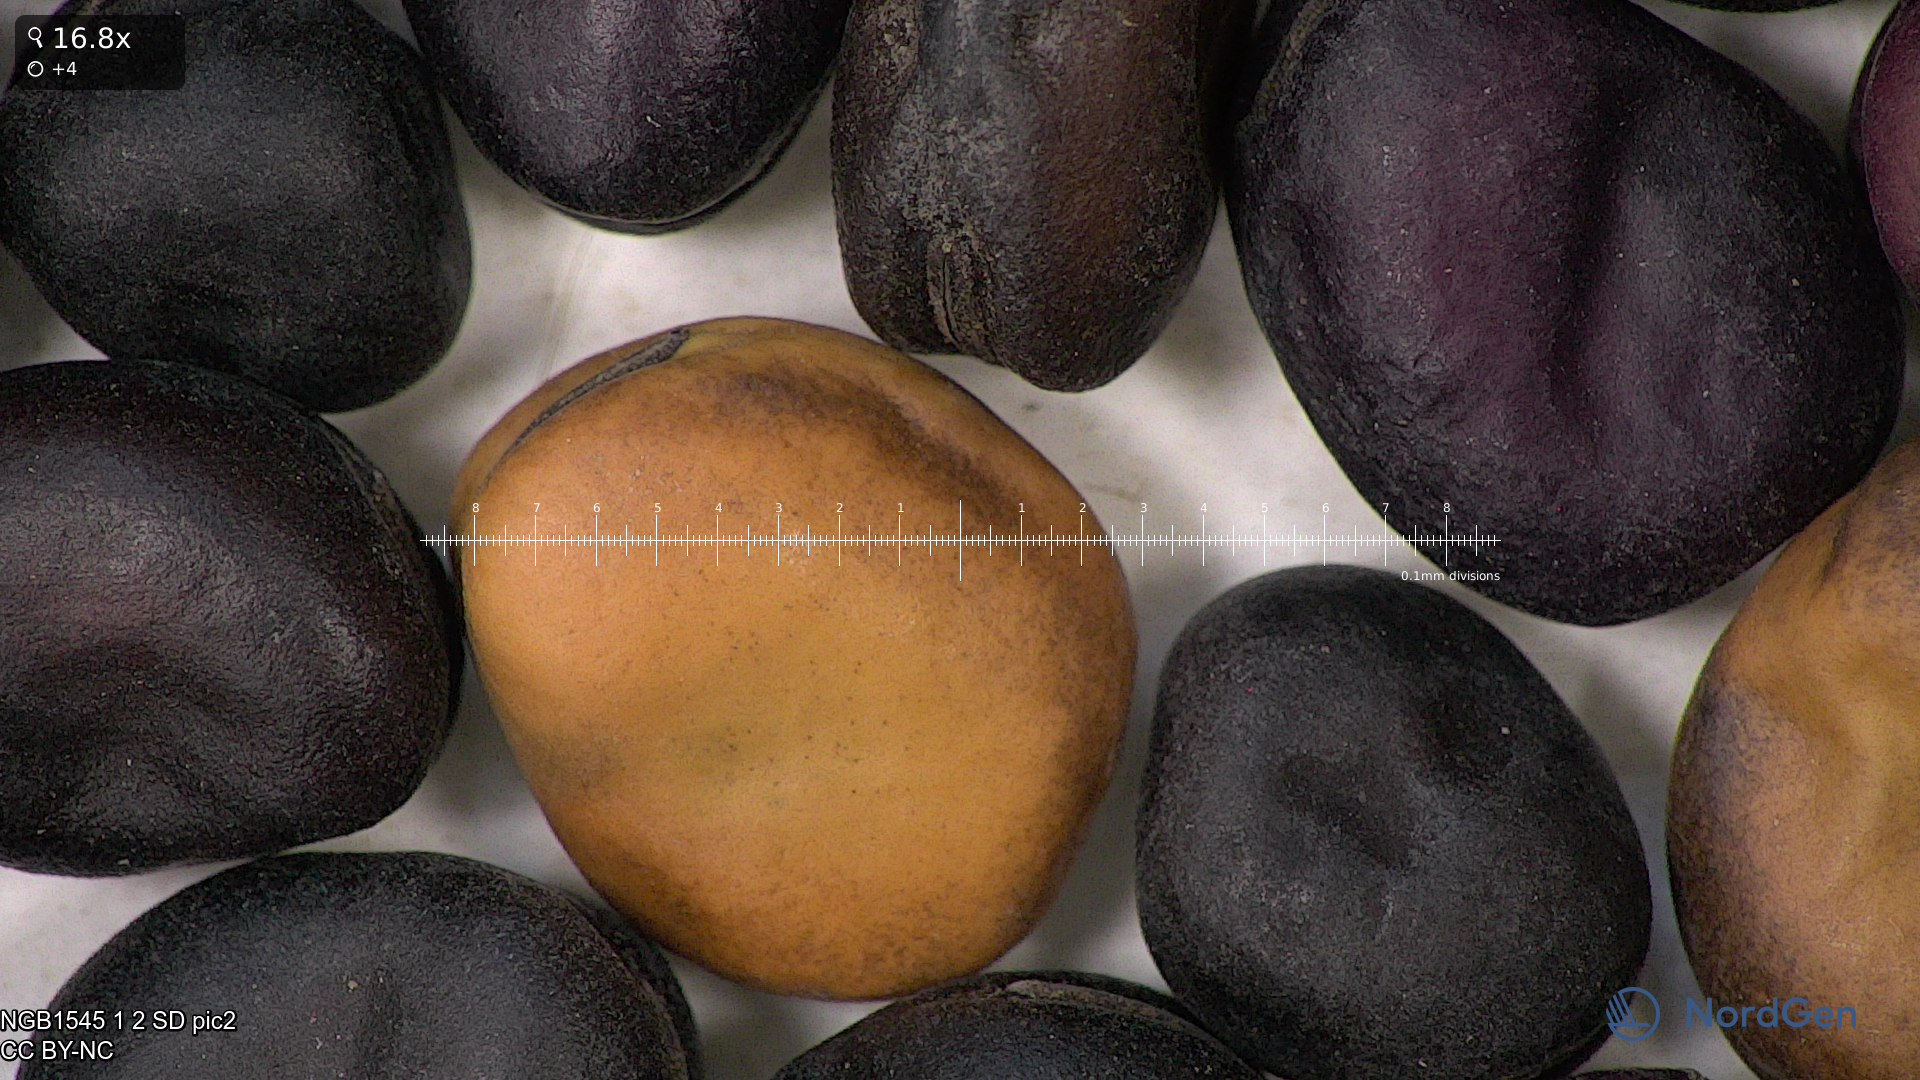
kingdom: Plantae
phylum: Tracheophyta
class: Magnoliopsida
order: Fabales
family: Fabaceae
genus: Vicia
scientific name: Vicia faba
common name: Broad bean
